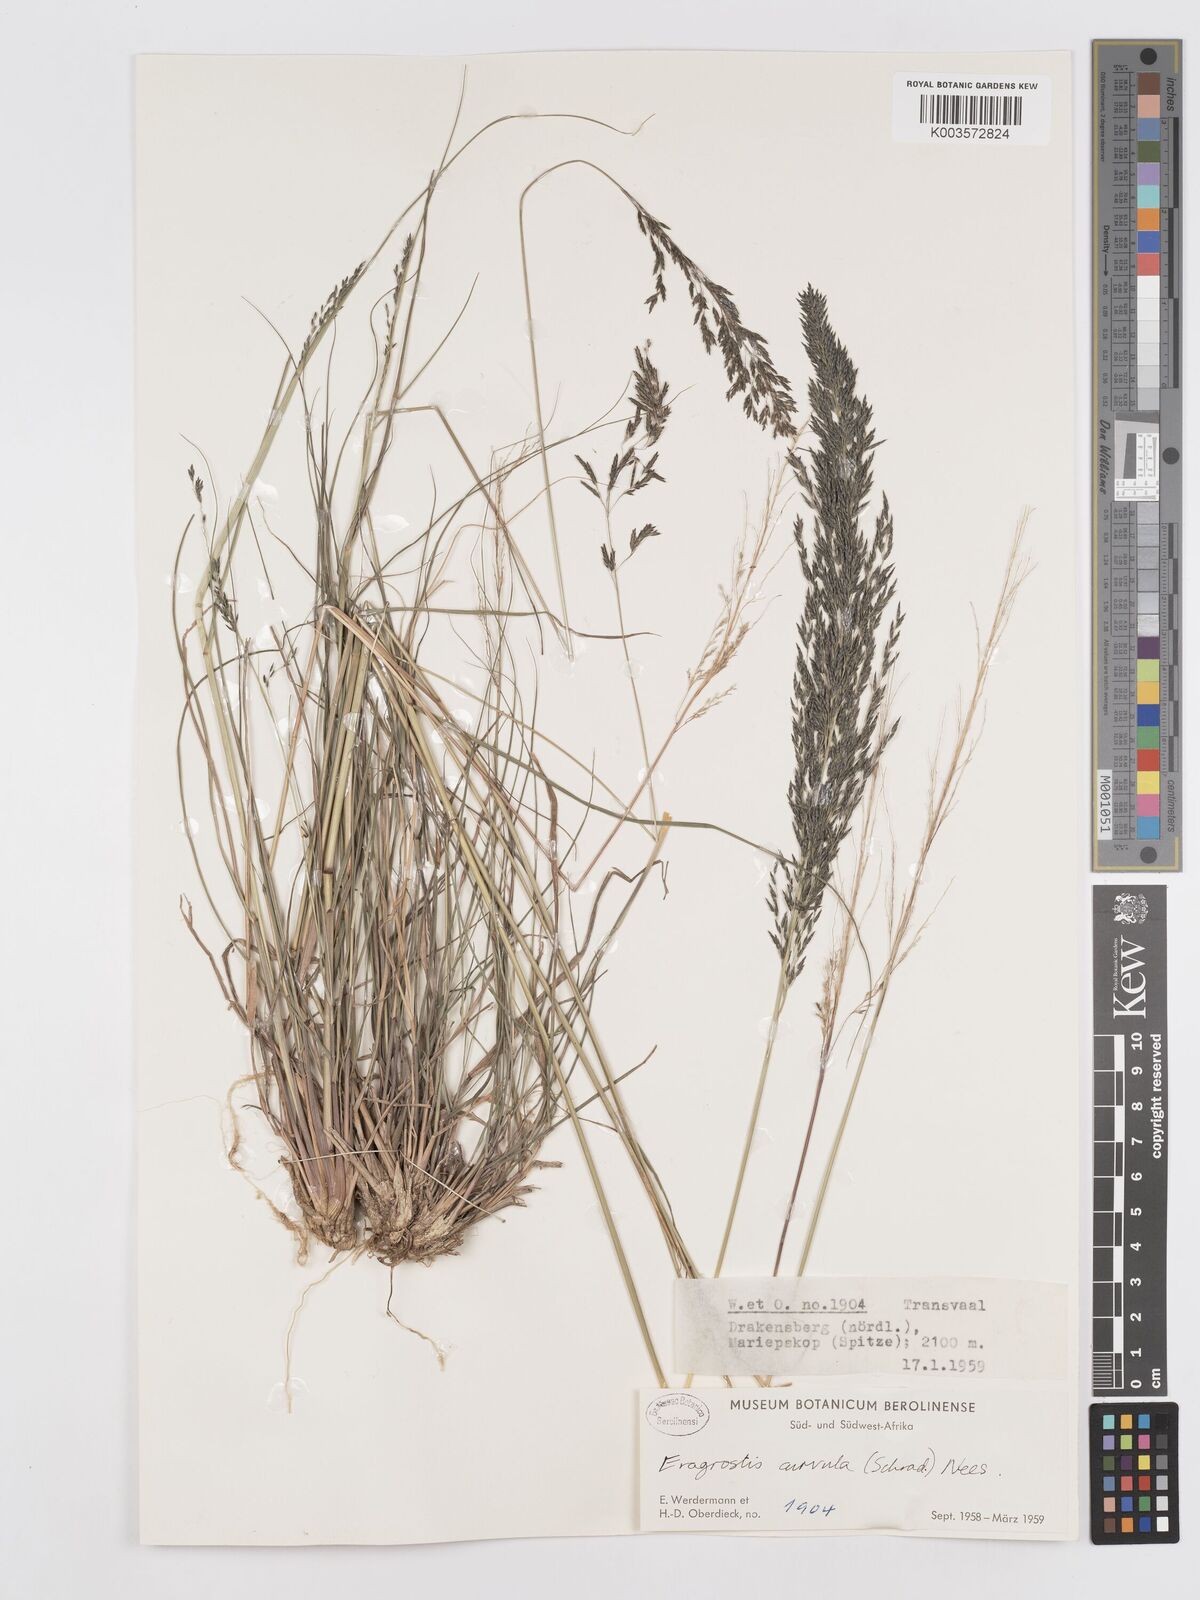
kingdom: Plantae
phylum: Tracheophyta
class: Liliopsida
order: Poales
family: Poaceae
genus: Eragrostis
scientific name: Eragrostis curvula
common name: African love-grass
